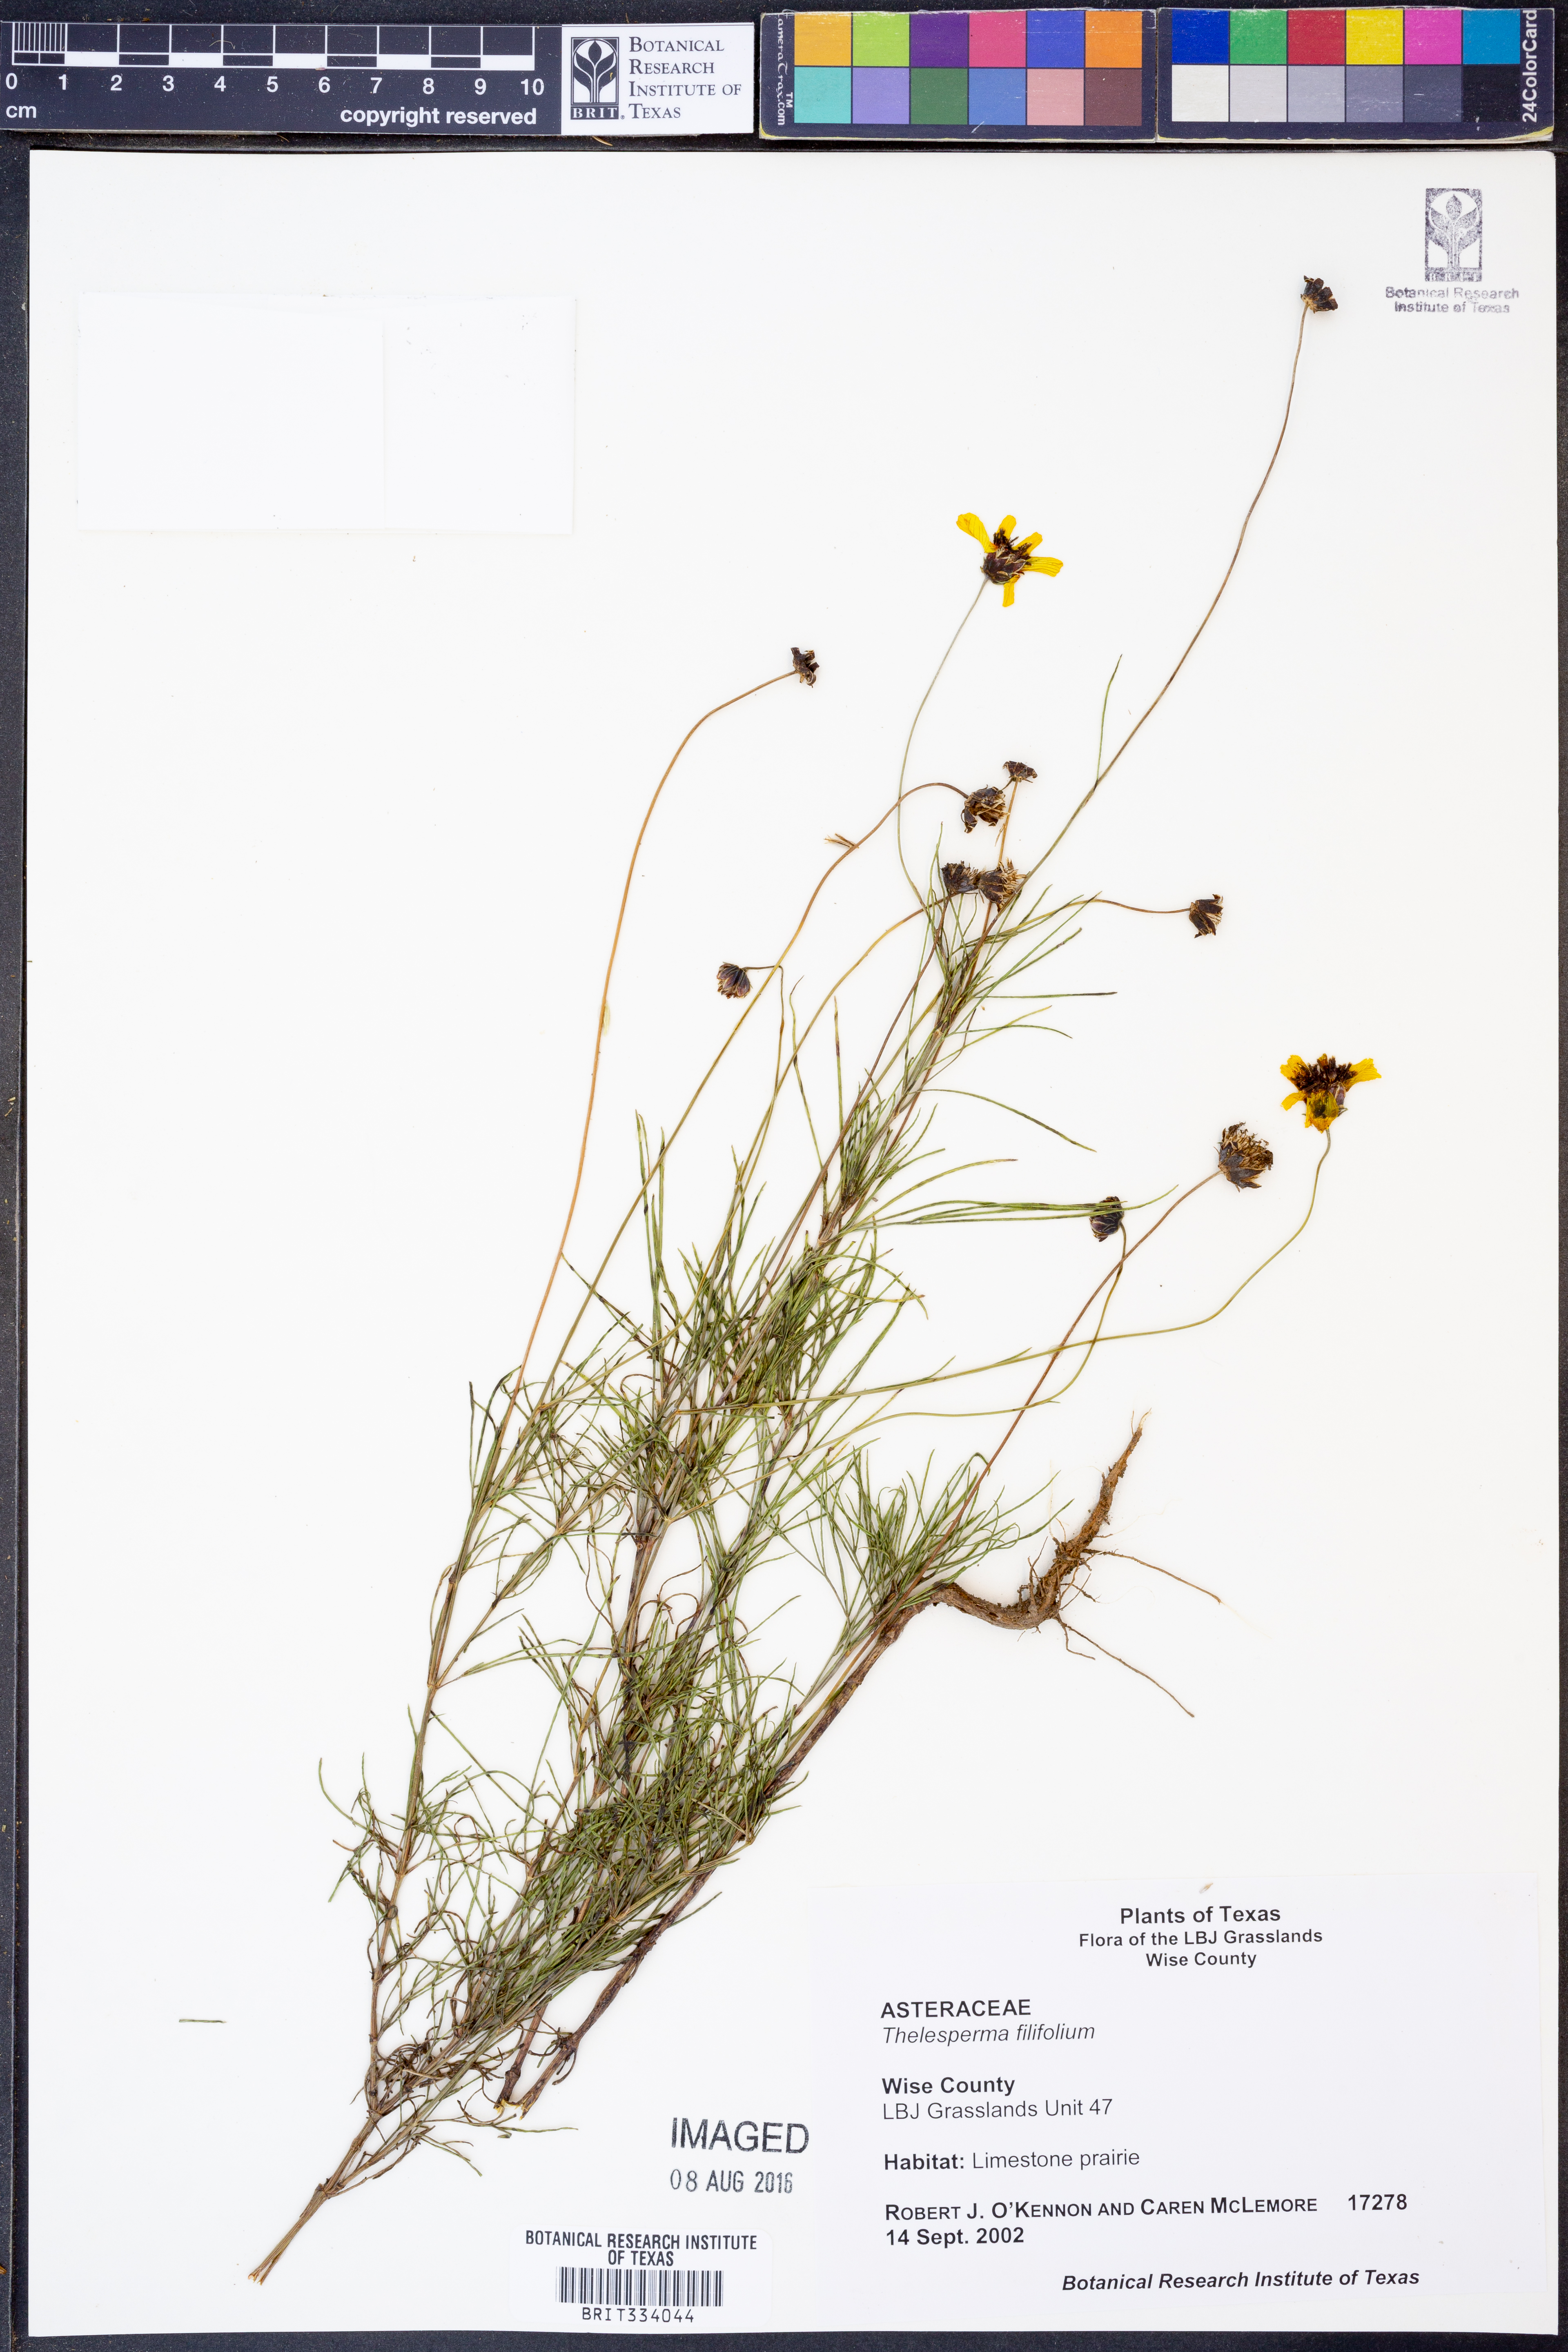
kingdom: Plantae
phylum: Tracheophyta
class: Magnoliopsida
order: Asterales
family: Asteraceae
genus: Thelesperma
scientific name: Thelesperma filifolium
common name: Stiff greenthread
